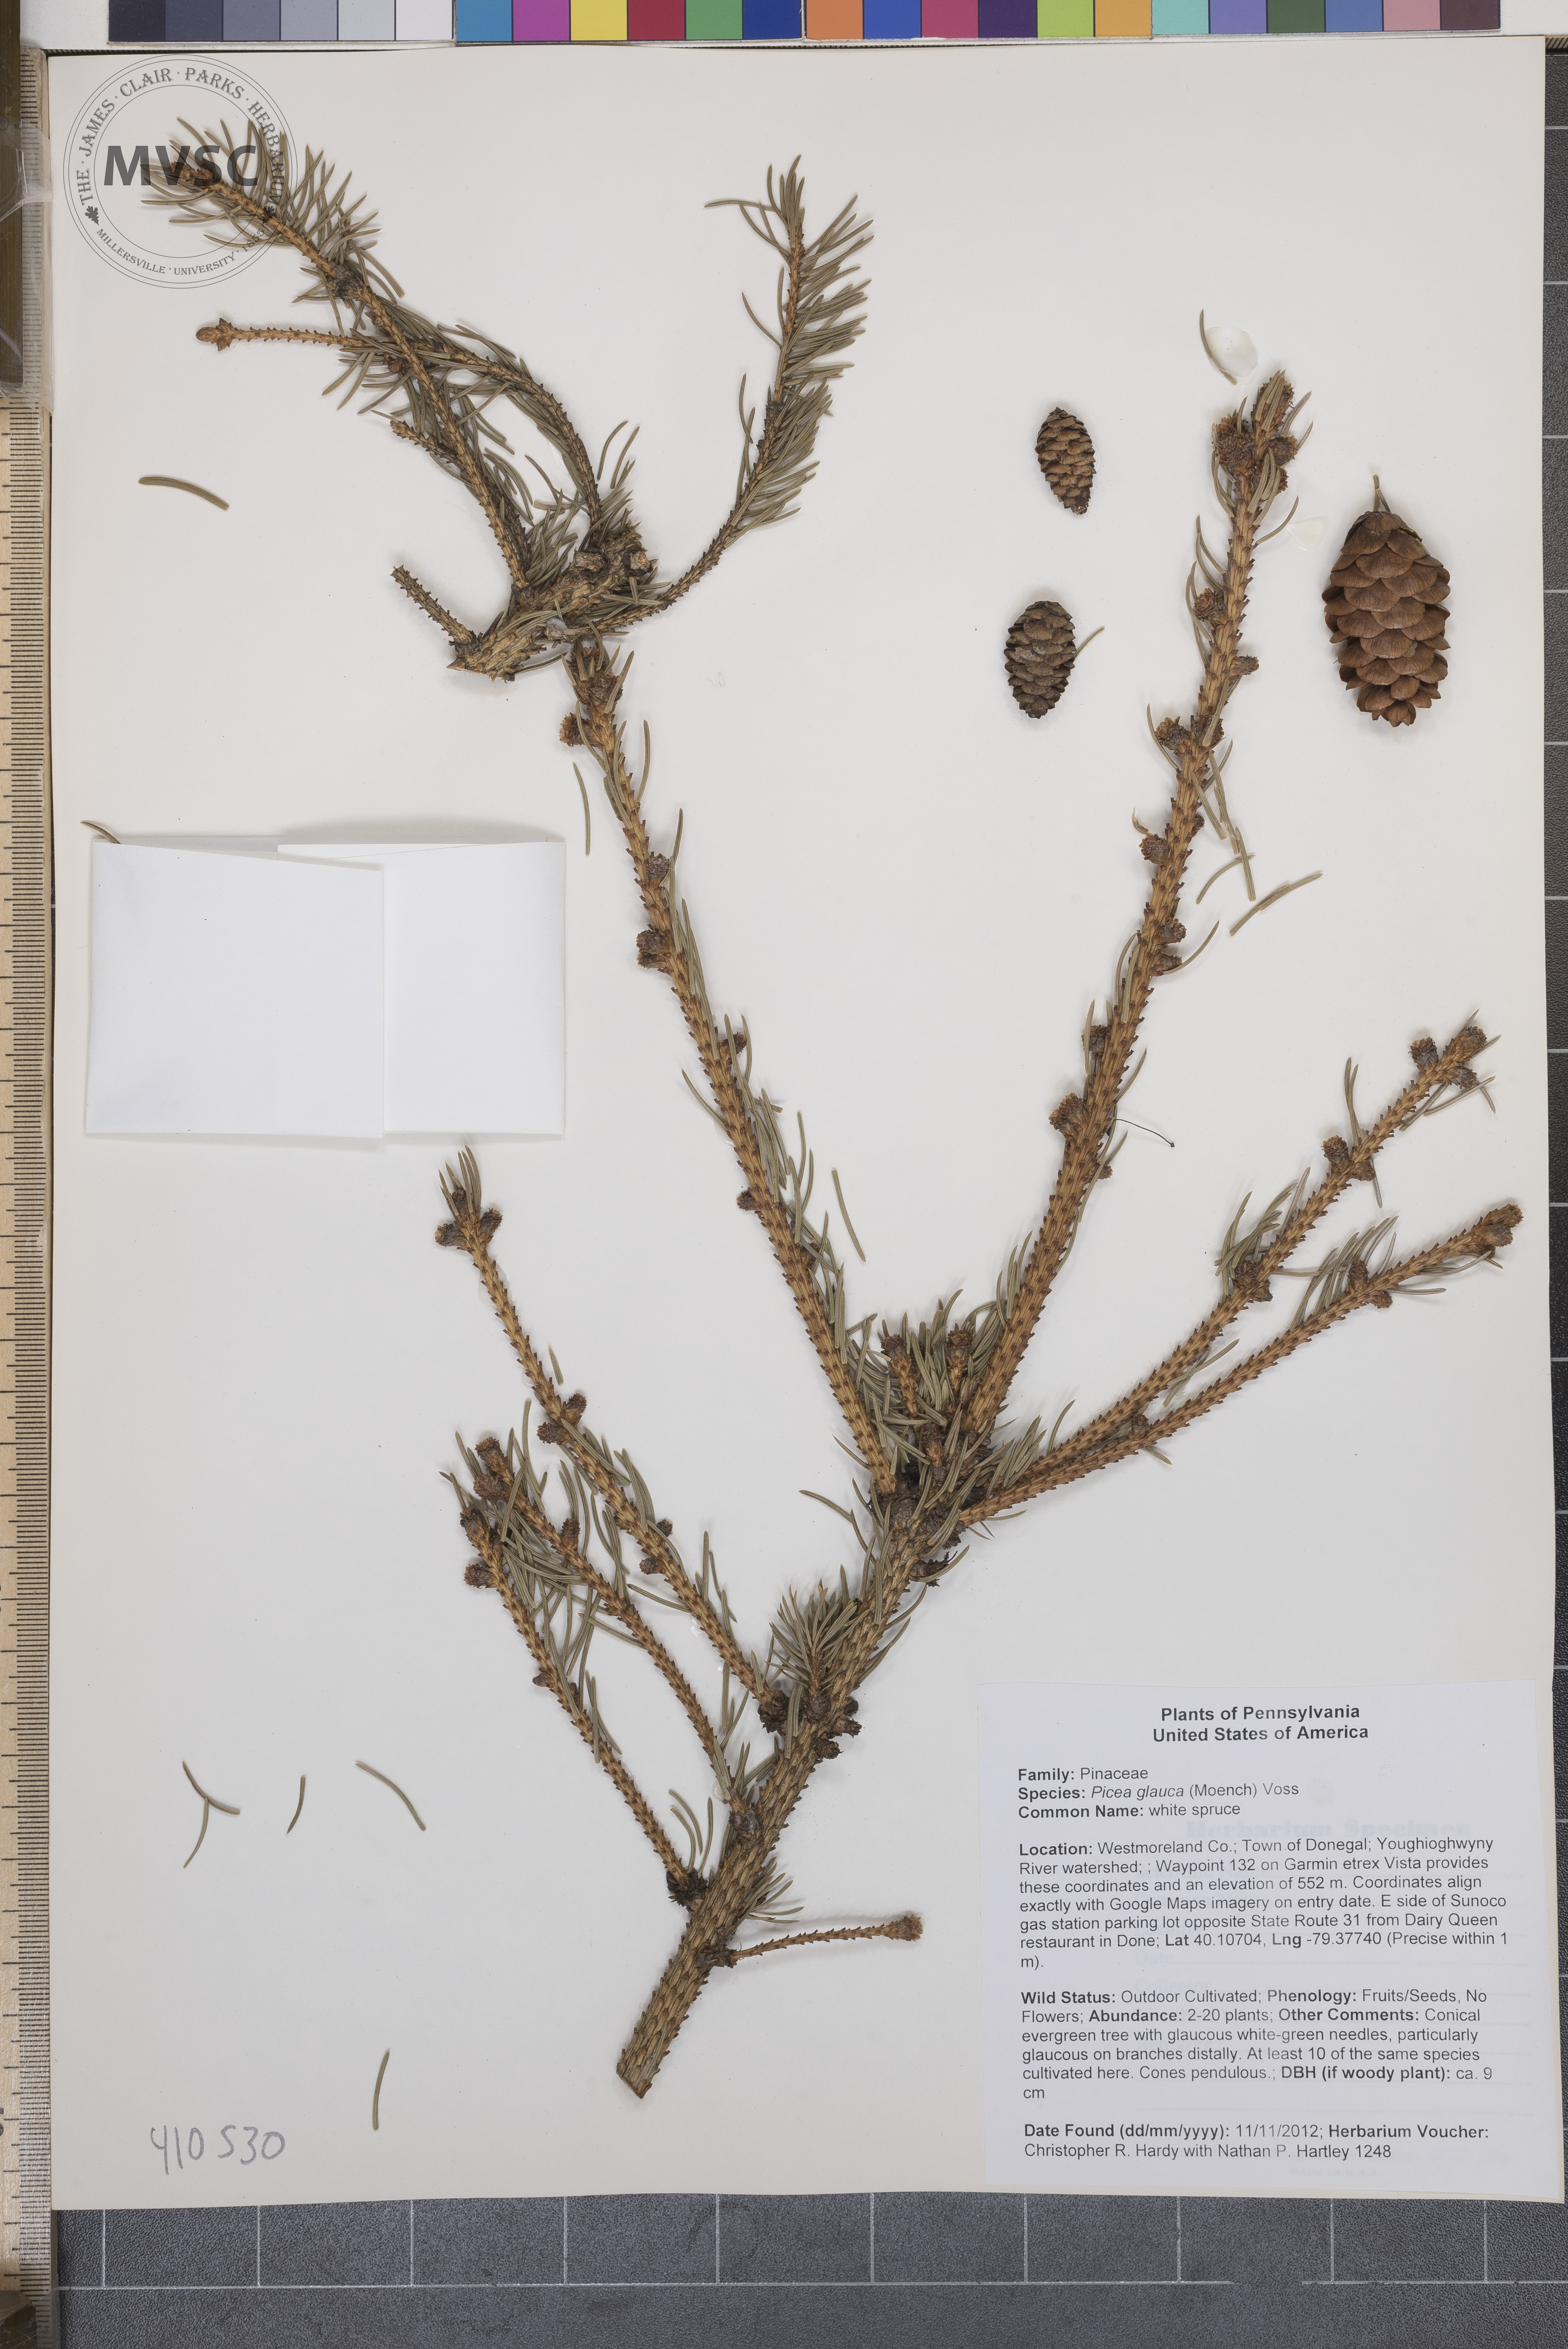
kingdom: Plantae
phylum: Tracheophyta
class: Pinopsida
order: Pinales
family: Pinaceae
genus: Picea
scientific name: Picea glauca
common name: white spruce
